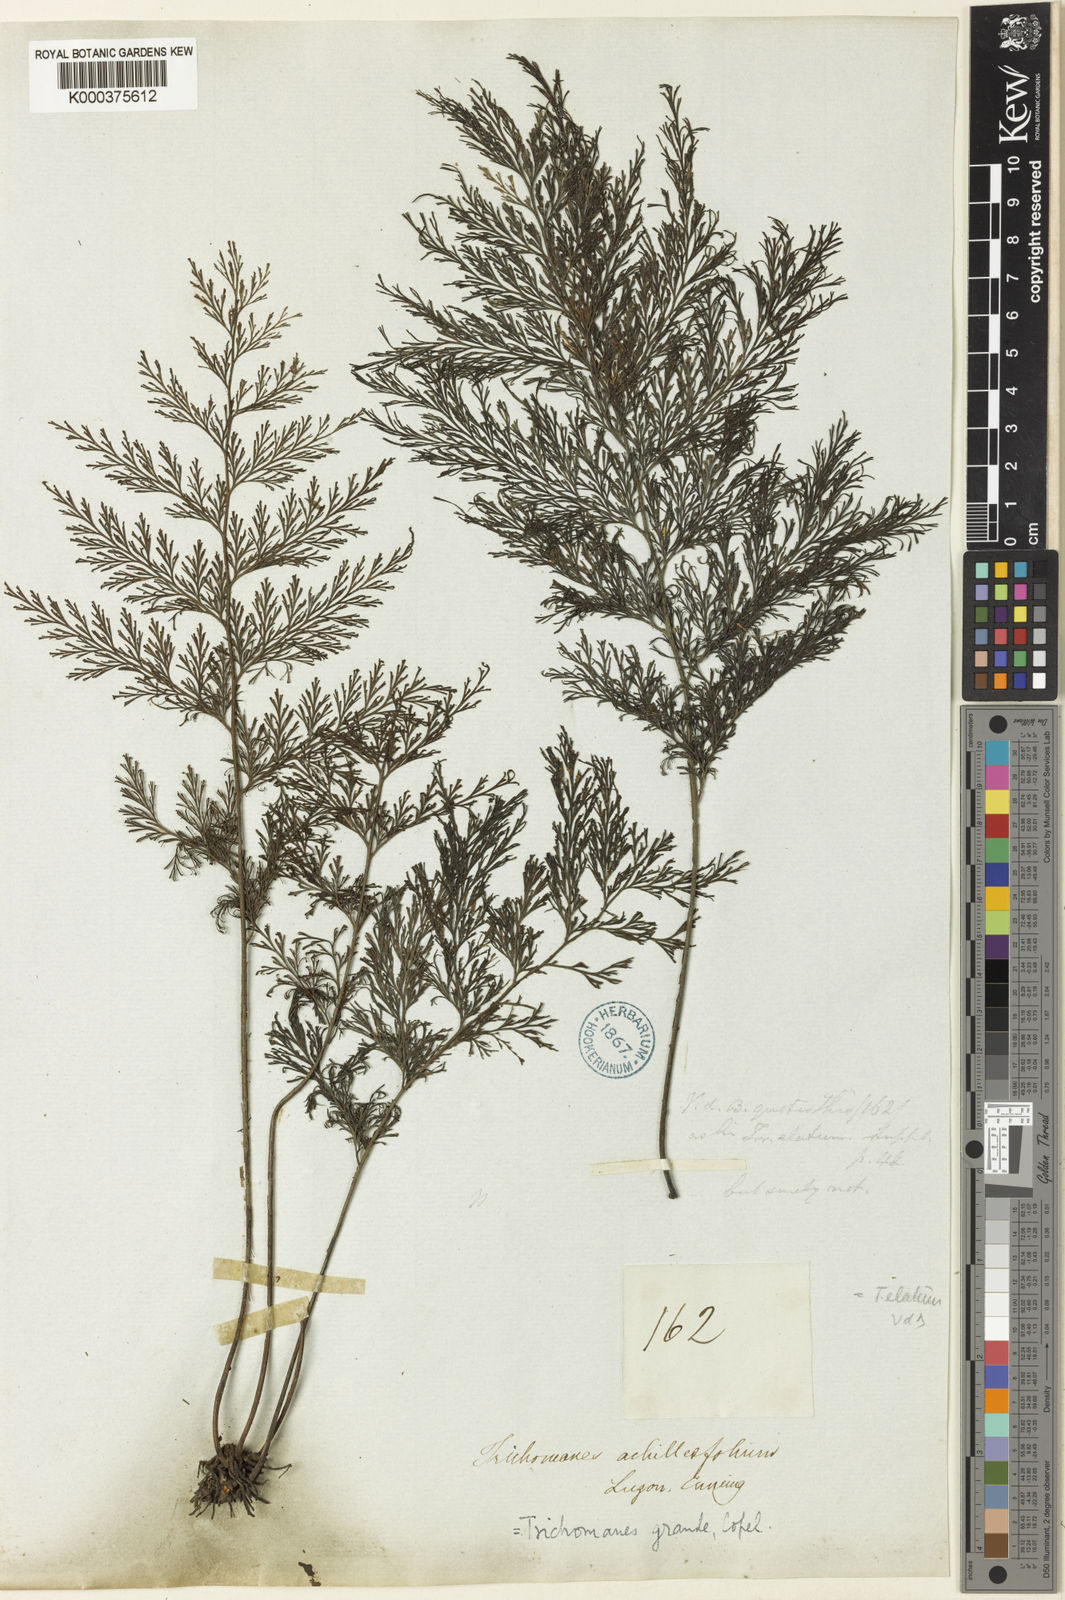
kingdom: Plantae
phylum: Tracheophyta
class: Polypodiopsida
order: Hymenophyllales
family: Hymenophyllaceae
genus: Crepidomanes
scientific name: Crepidomanes grande
